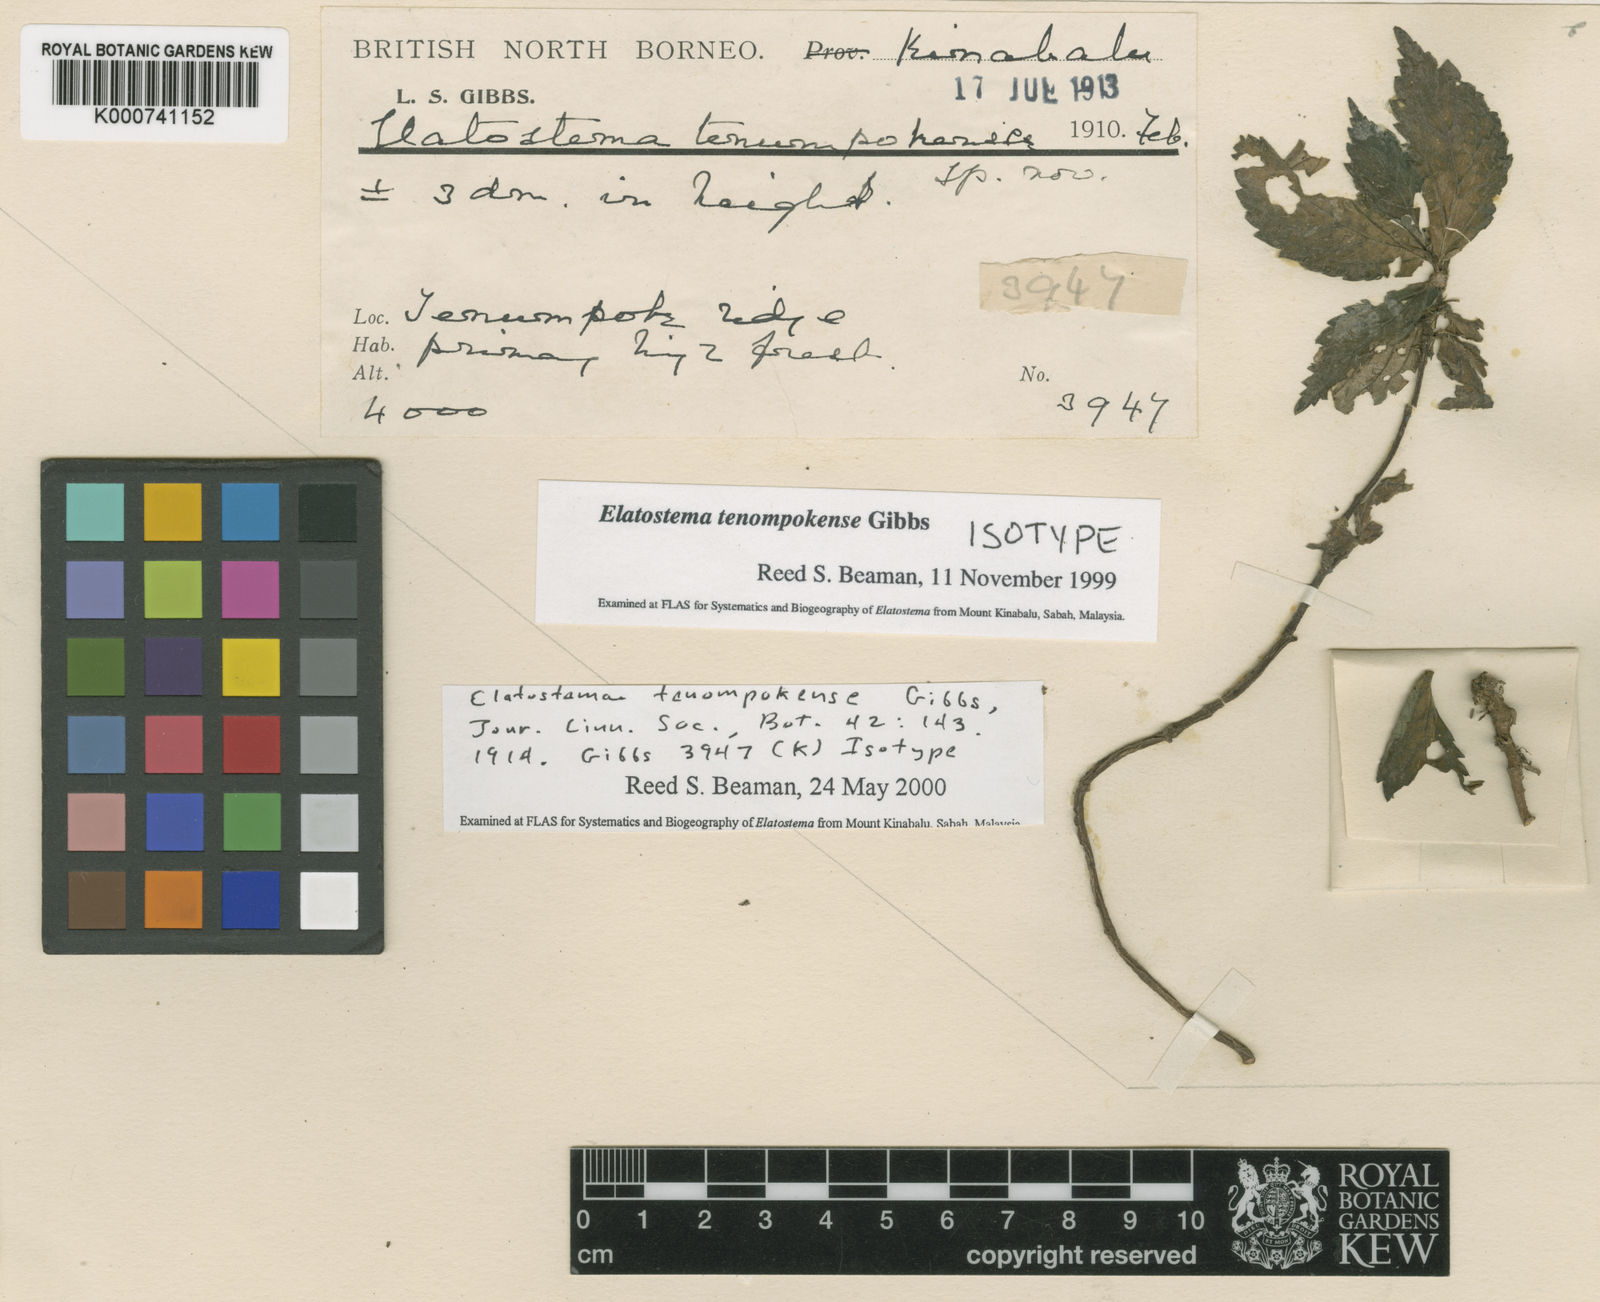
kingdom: Plantae
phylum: Tracheophyta
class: Magnoliopsida
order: Rosales
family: Urticaceae
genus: Elatostema
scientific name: Elatostema tenompokense
